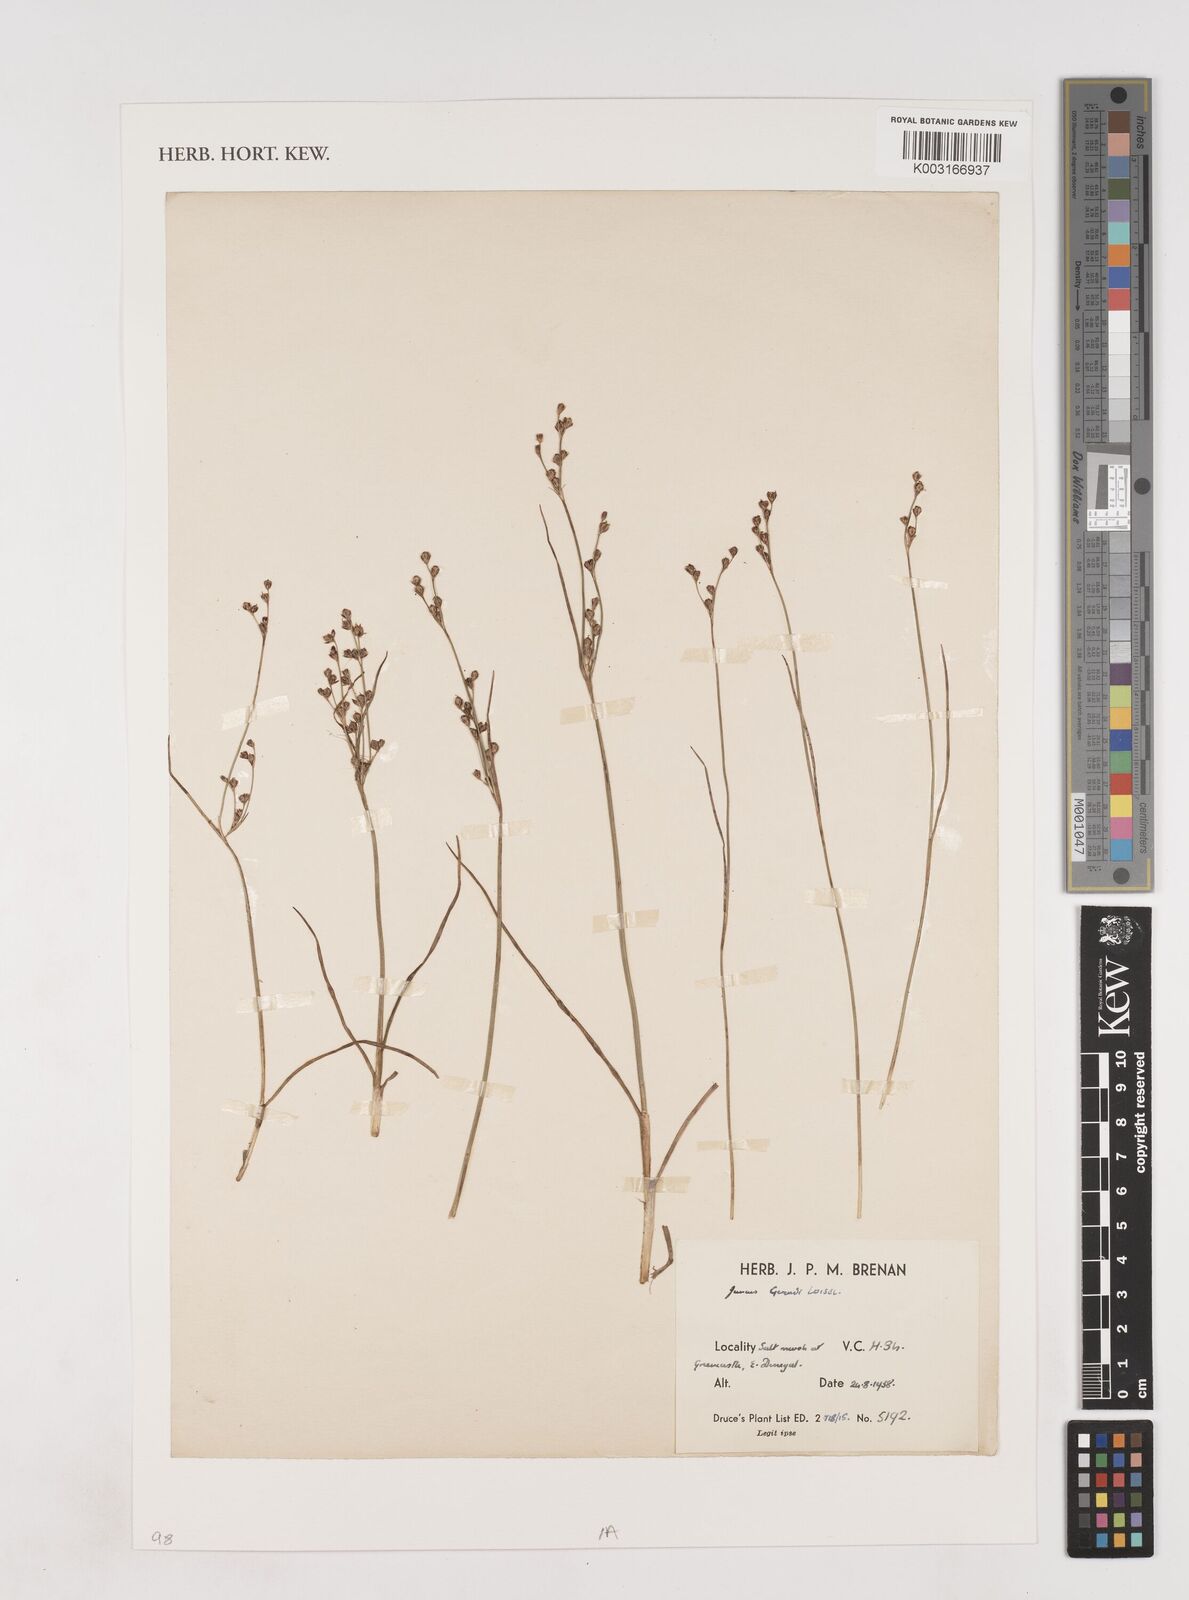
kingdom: Plantae
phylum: Tracheophyta
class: Liliopsida
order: Poales
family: Juncaceae
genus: Juncus
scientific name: Juncus gerardi
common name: Saltmarsh rush
